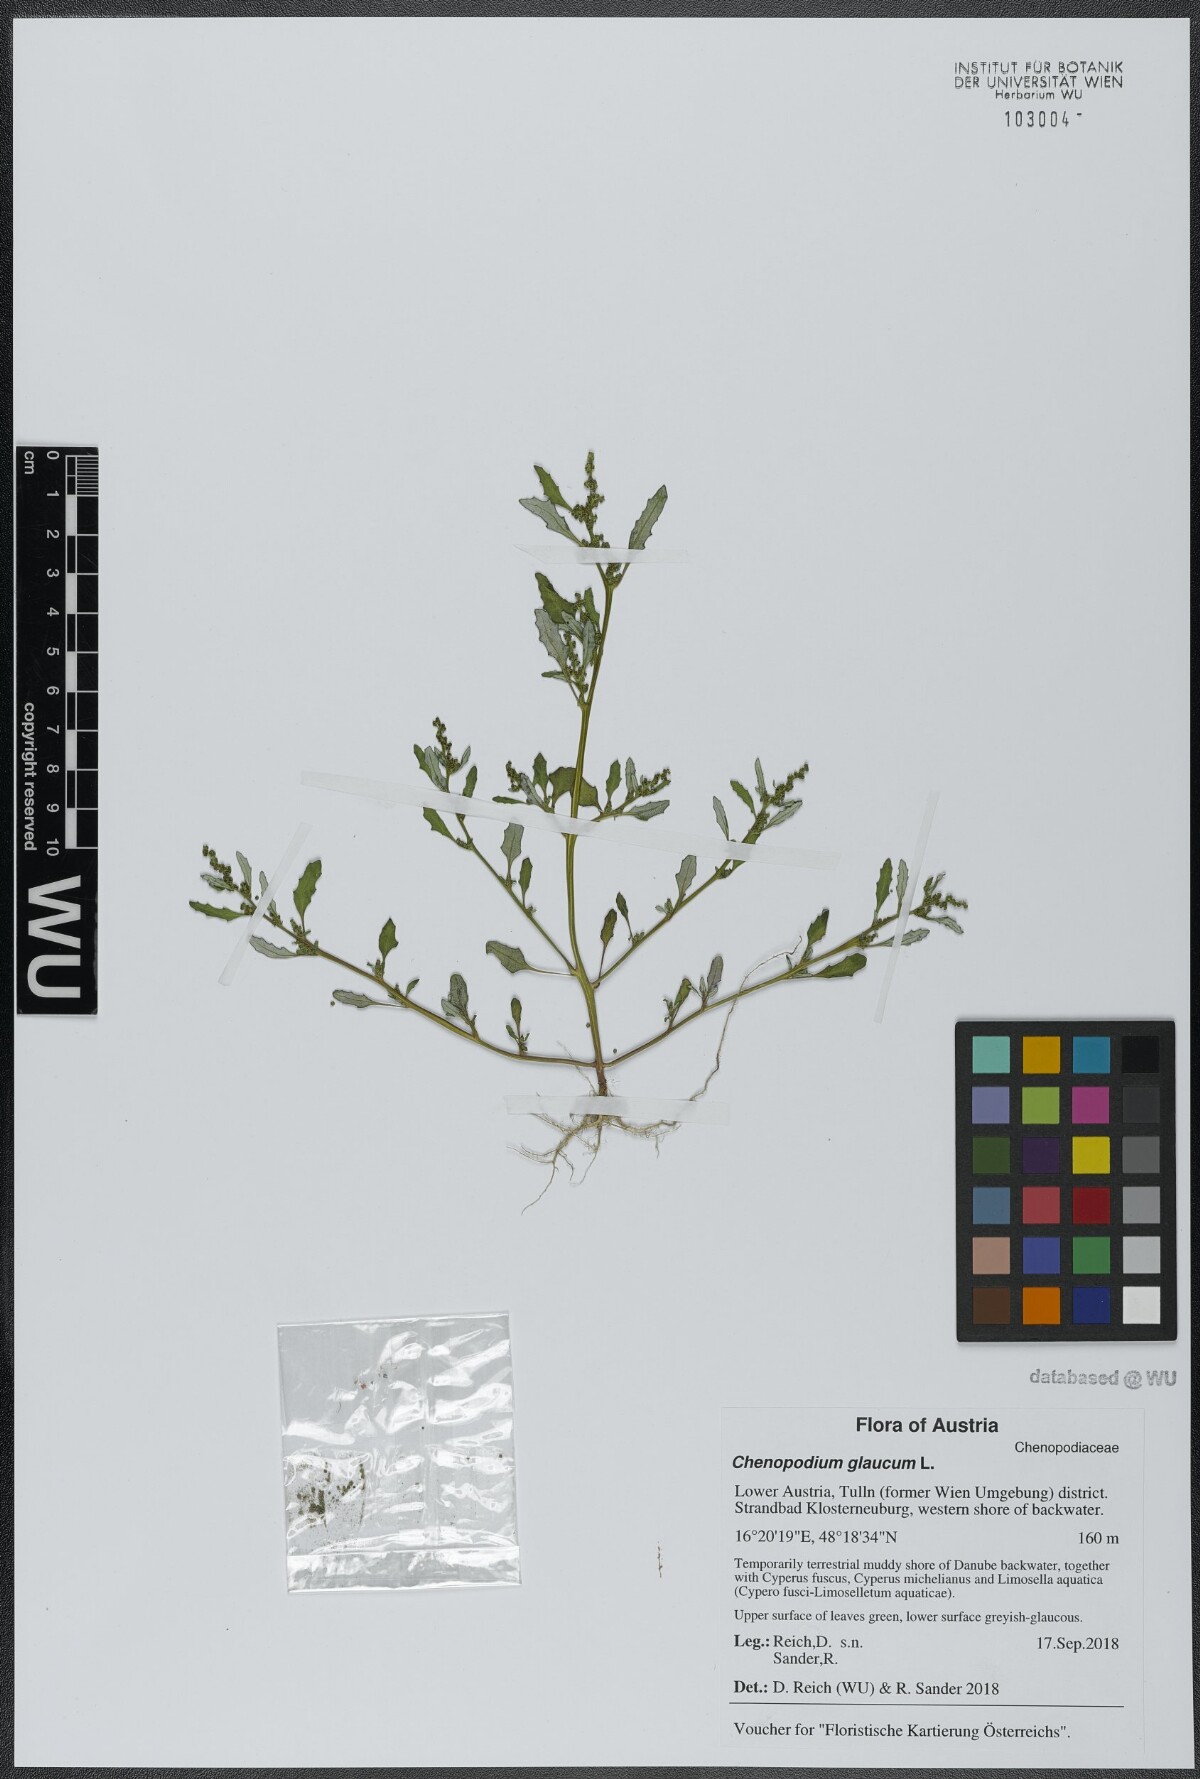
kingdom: Plantae
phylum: Tracheophyta
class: Magnoliopsida
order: Caryophyllales
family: Amaranthaceae
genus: Oxybasis
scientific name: Oxybasis glauca
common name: Glaucous goosefoot
